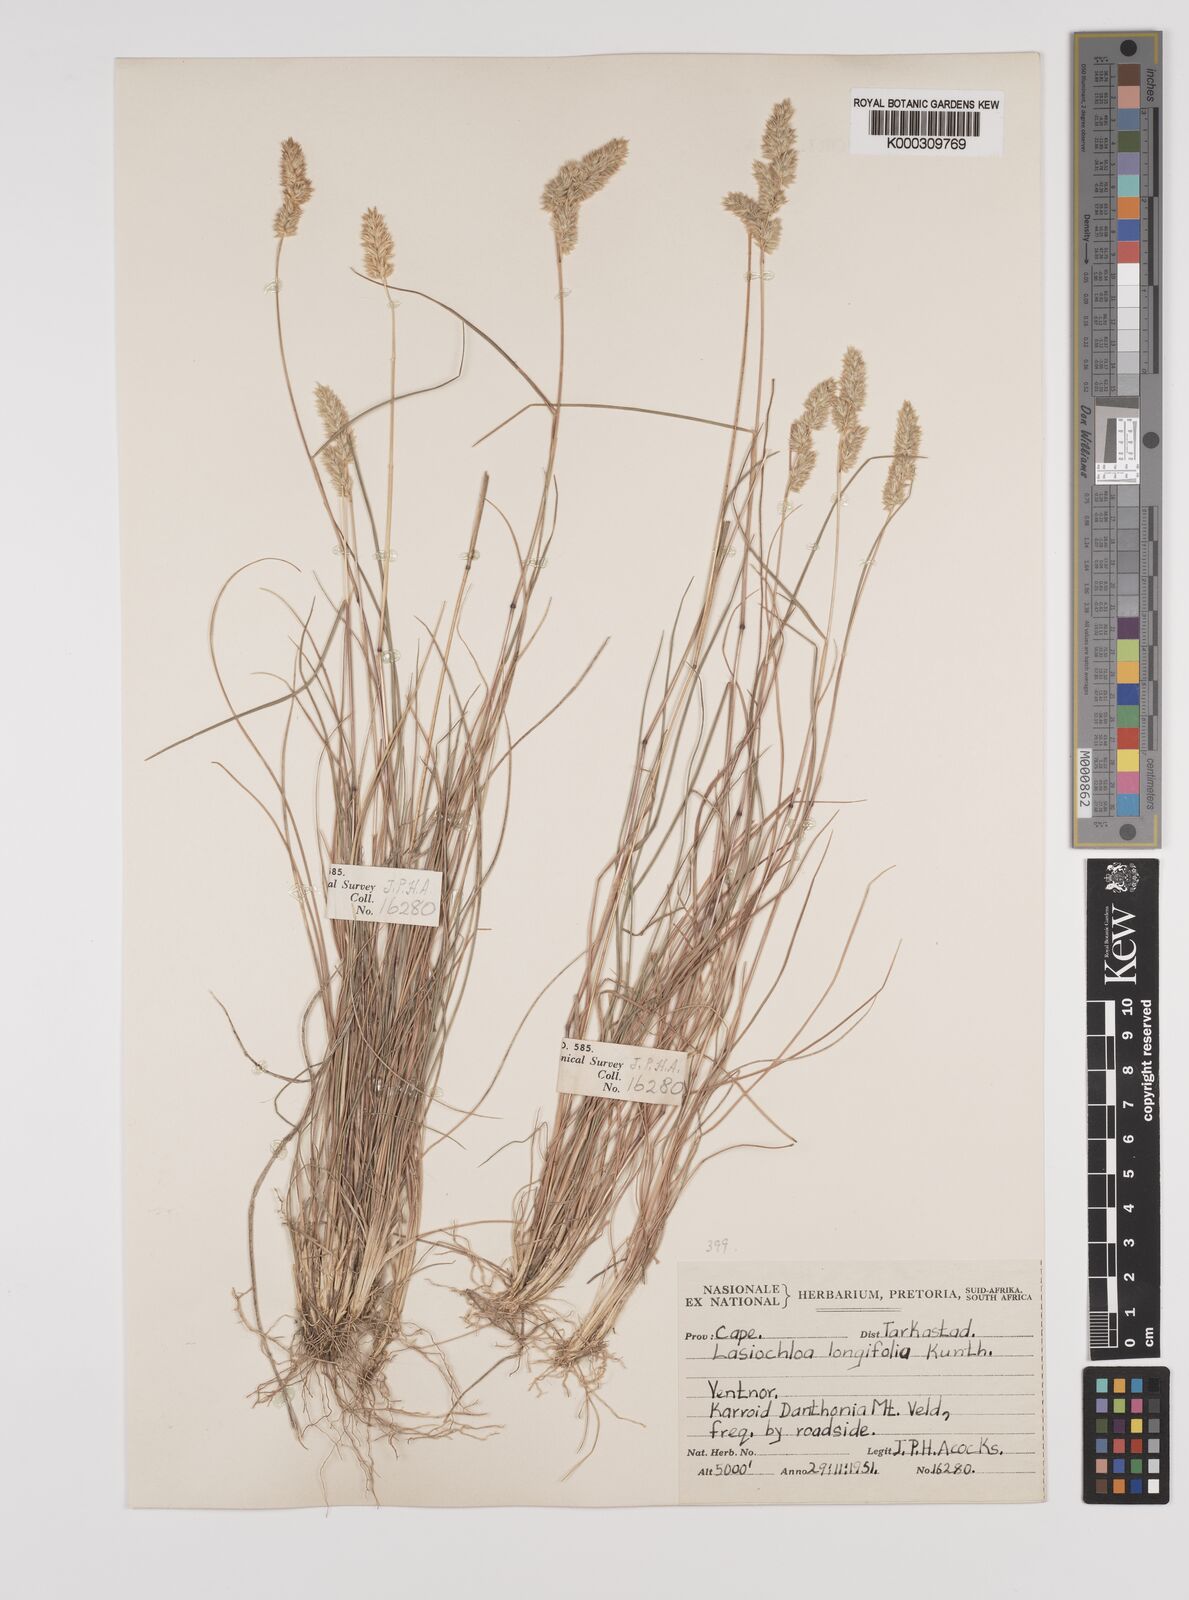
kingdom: Plantae
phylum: Tracheophyta
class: Liliopsida
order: Poales
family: Poaceae
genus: Tribolium
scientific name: Tribolium hispidum
